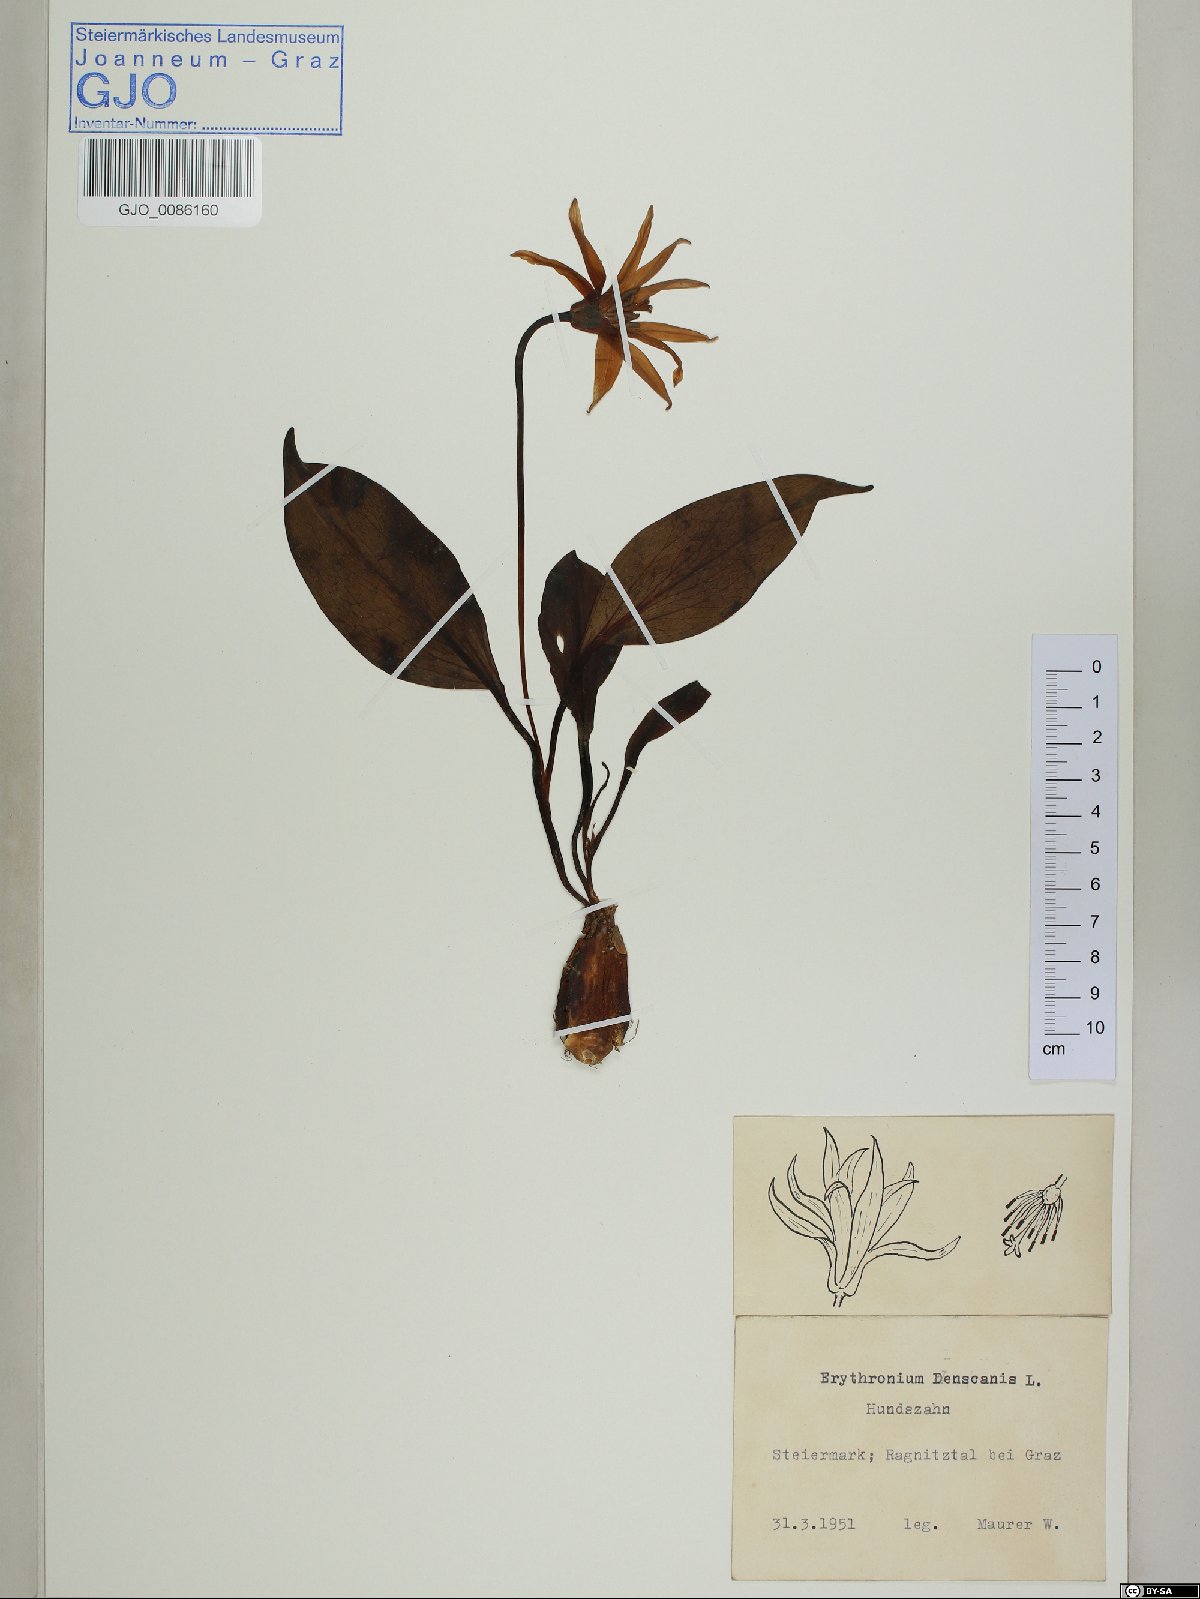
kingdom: Plantae
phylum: Tracheophyta
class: Liliopsida
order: Liliales
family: Liliaceae
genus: Erythronium
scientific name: Erythronium dens-canis
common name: Dog's-tooth-violet
